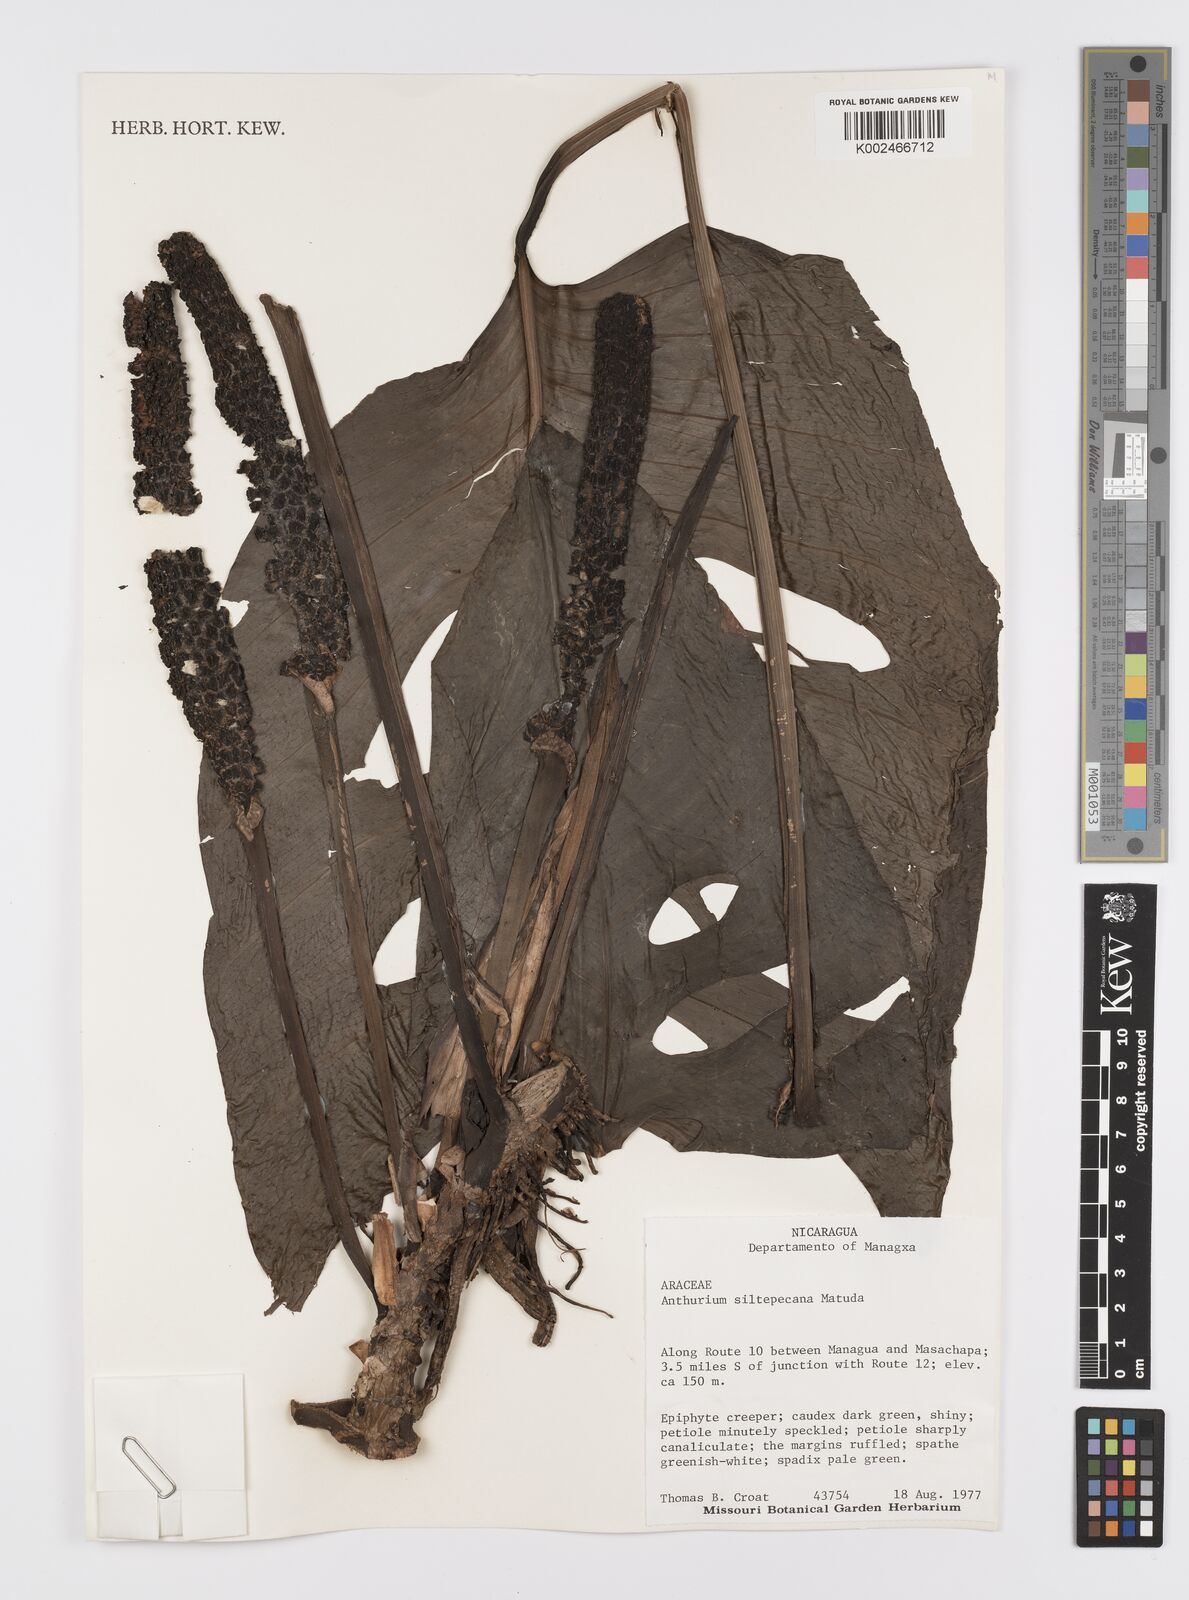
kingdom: Plantae
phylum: Tracheophyta
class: Liliopsida
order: Alismatales
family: Araceae
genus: Monstera
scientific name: Monstera siltepecana
